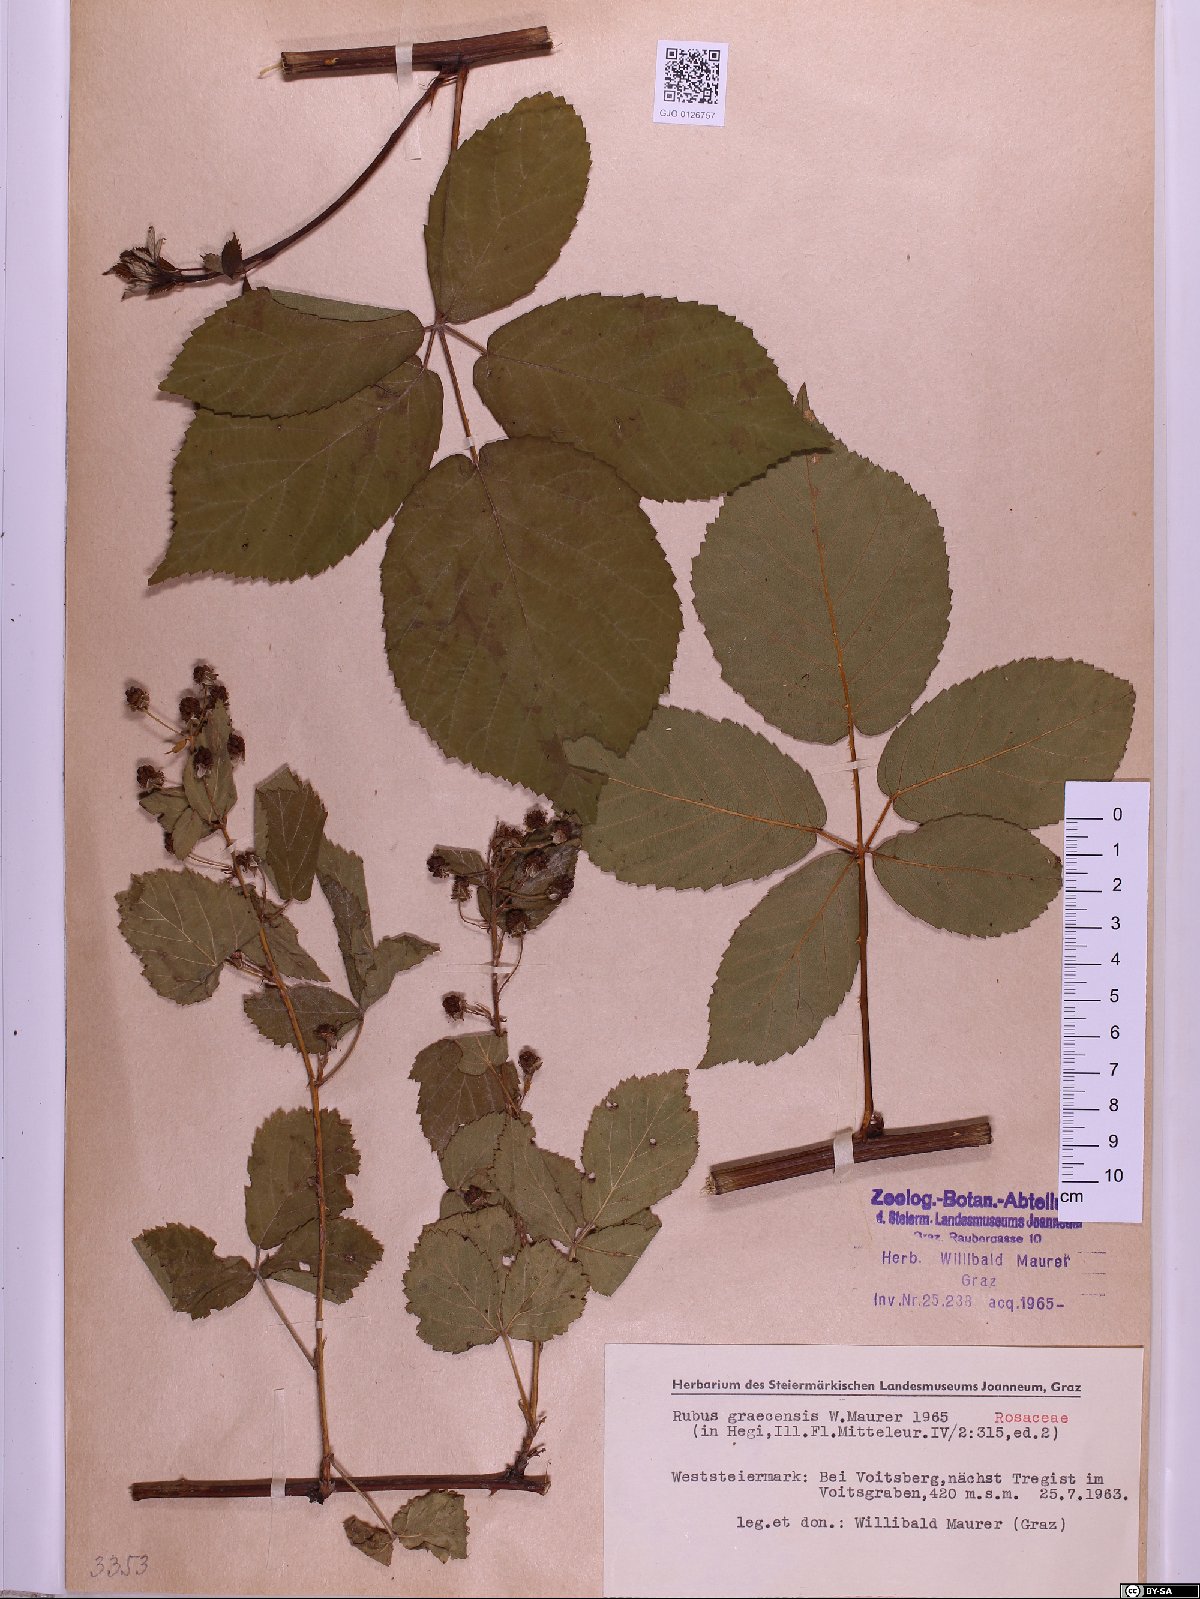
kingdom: Plantae
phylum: Tracheophyta
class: Magnoliopsida
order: Rosales
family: Rosaceae
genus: Rubus
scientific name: Rubus graecensis
